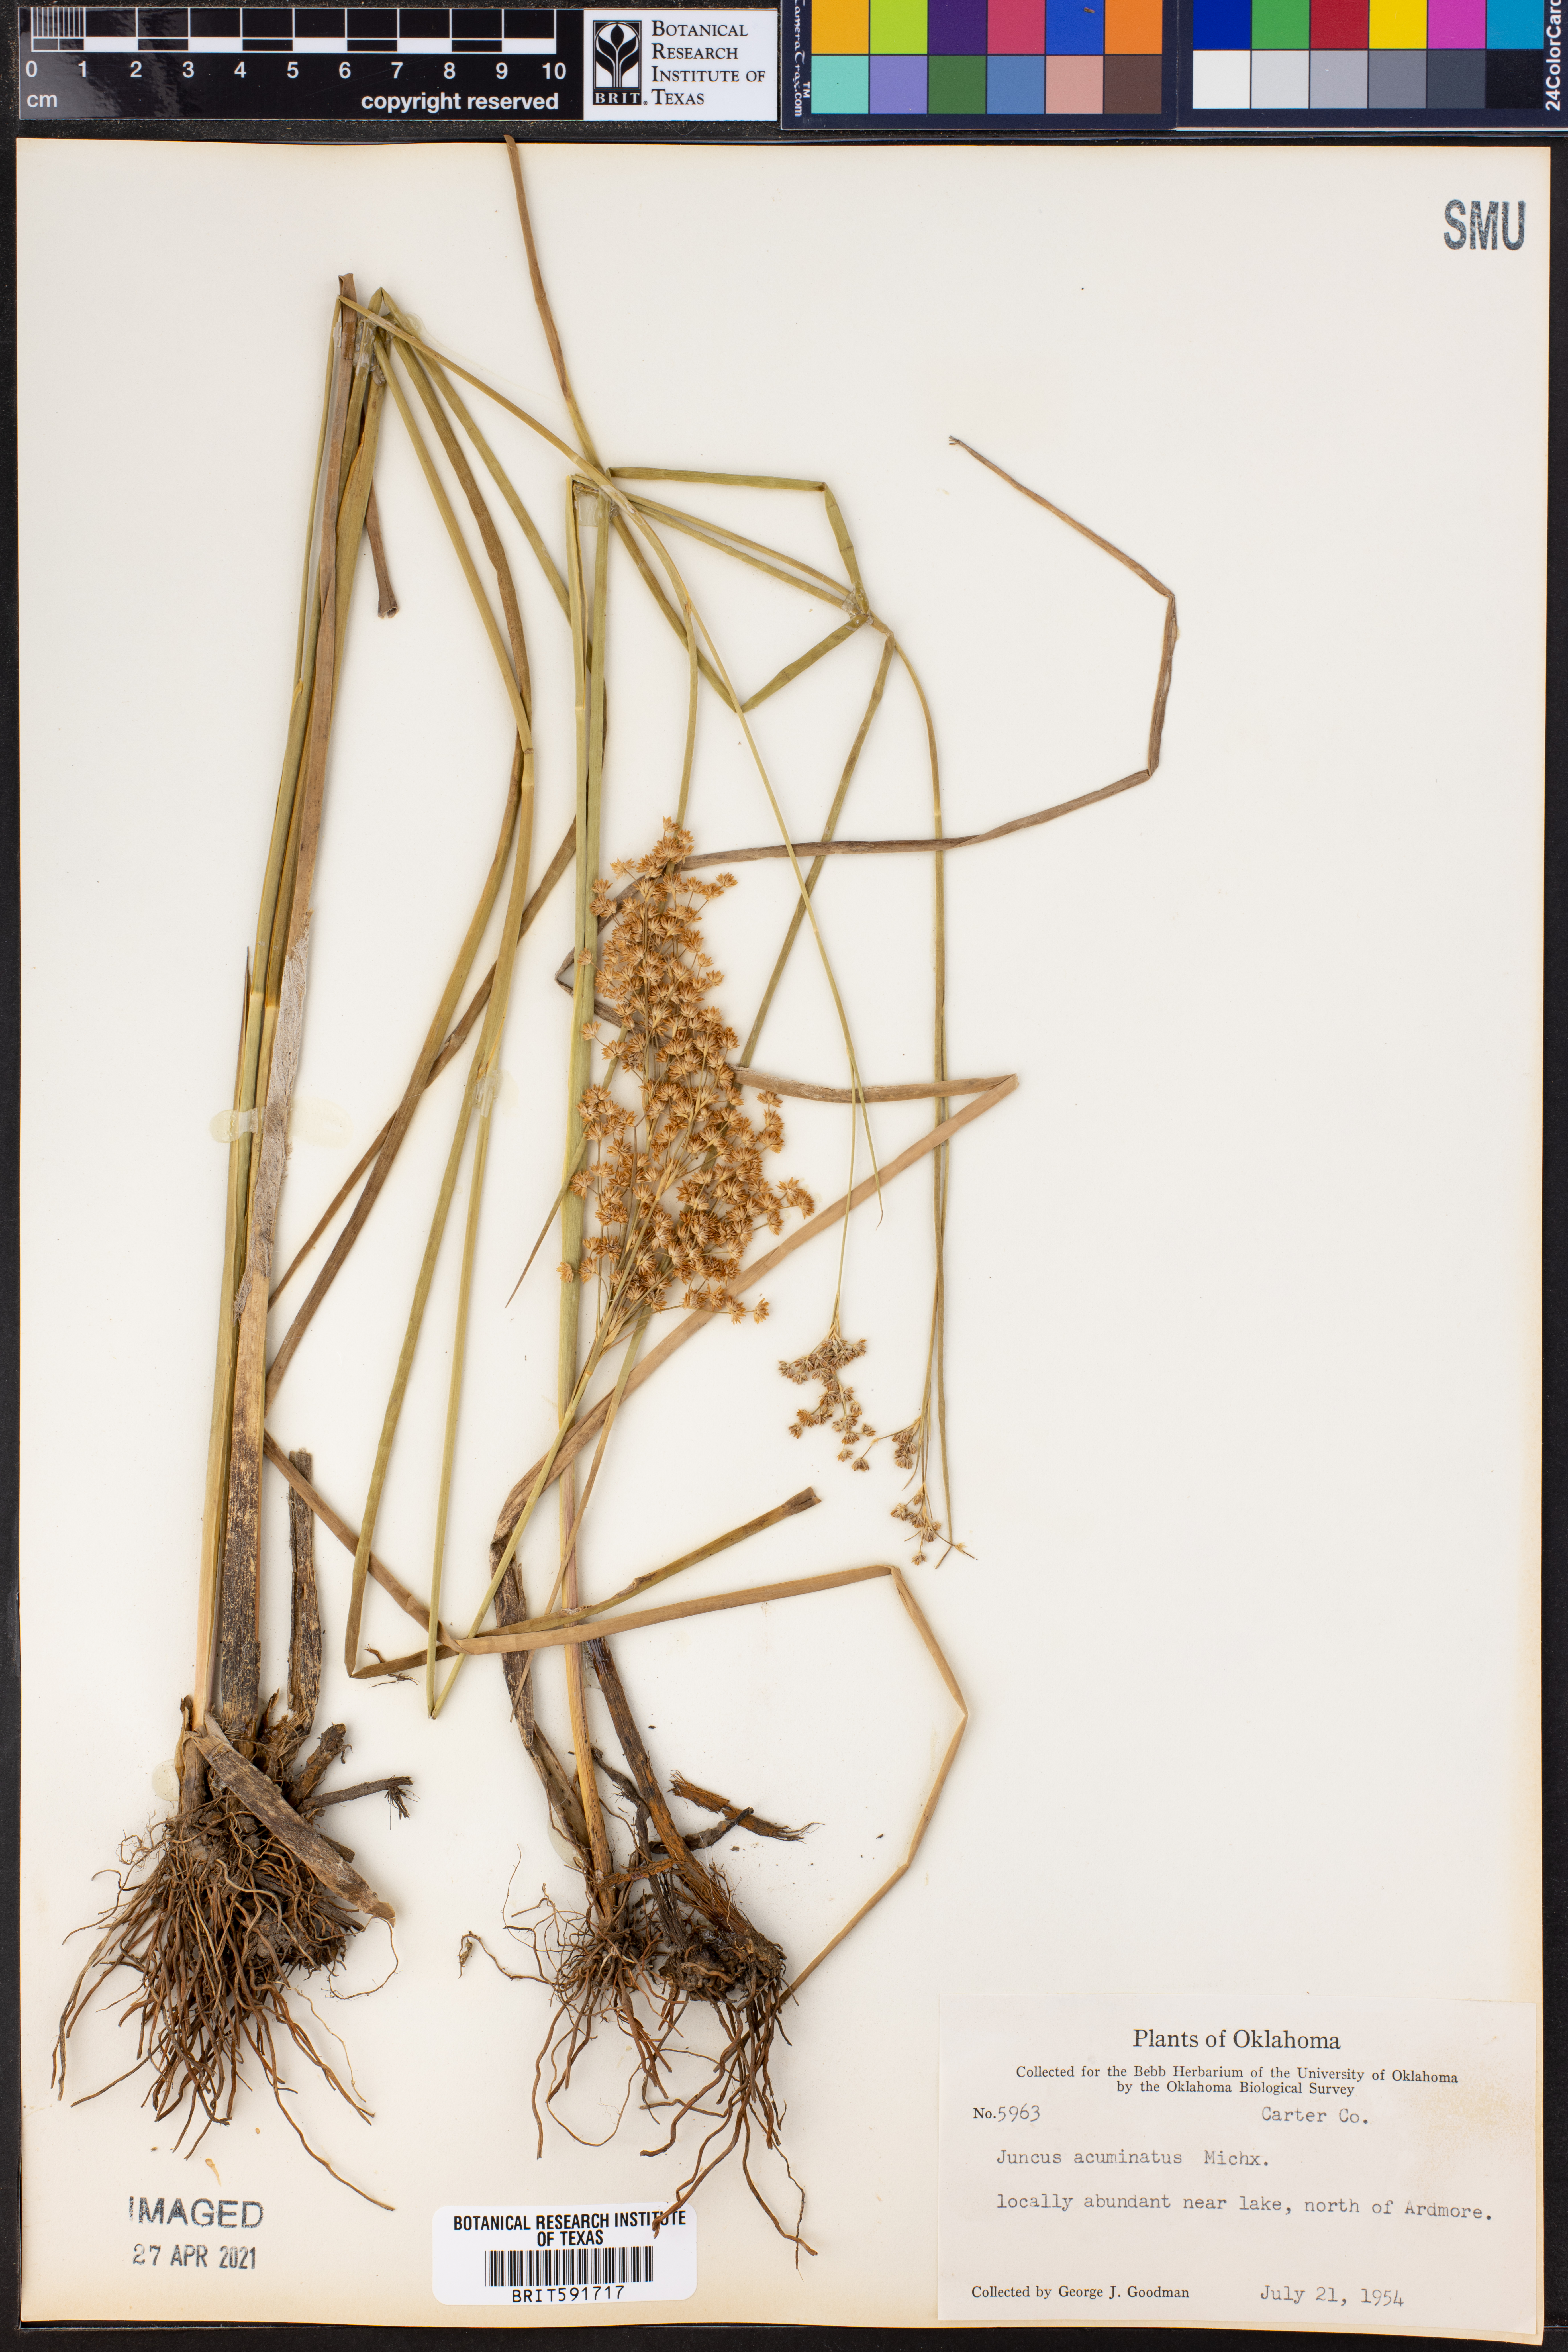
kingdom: Plantae
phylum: Tracheophyta
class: Liliopsida
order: Poales
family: Juncaceae
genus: Juncus
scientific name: Juncus acuminatus
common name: Knotty-leaved rush
